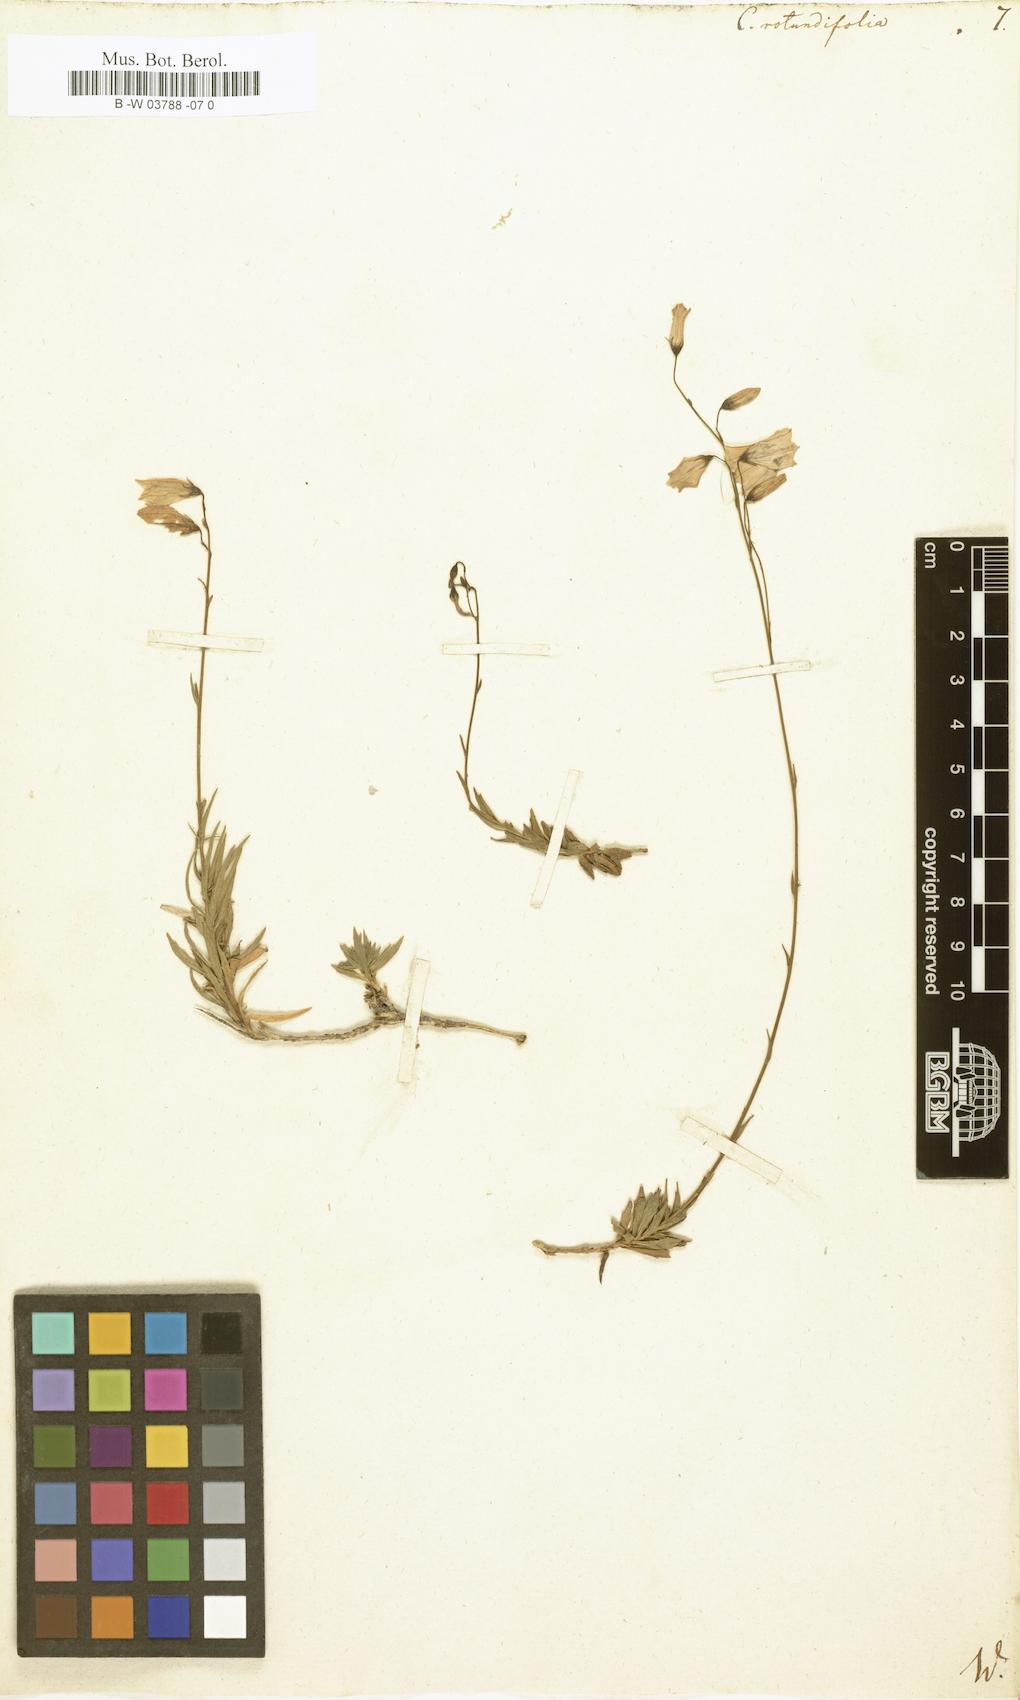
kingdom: Plantae
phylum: Tracheophyta
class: Magnoliopsida
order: Asterales
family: Campanulaceae
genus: Campanula
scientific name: Campanula rotundifolia
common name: Harebell
